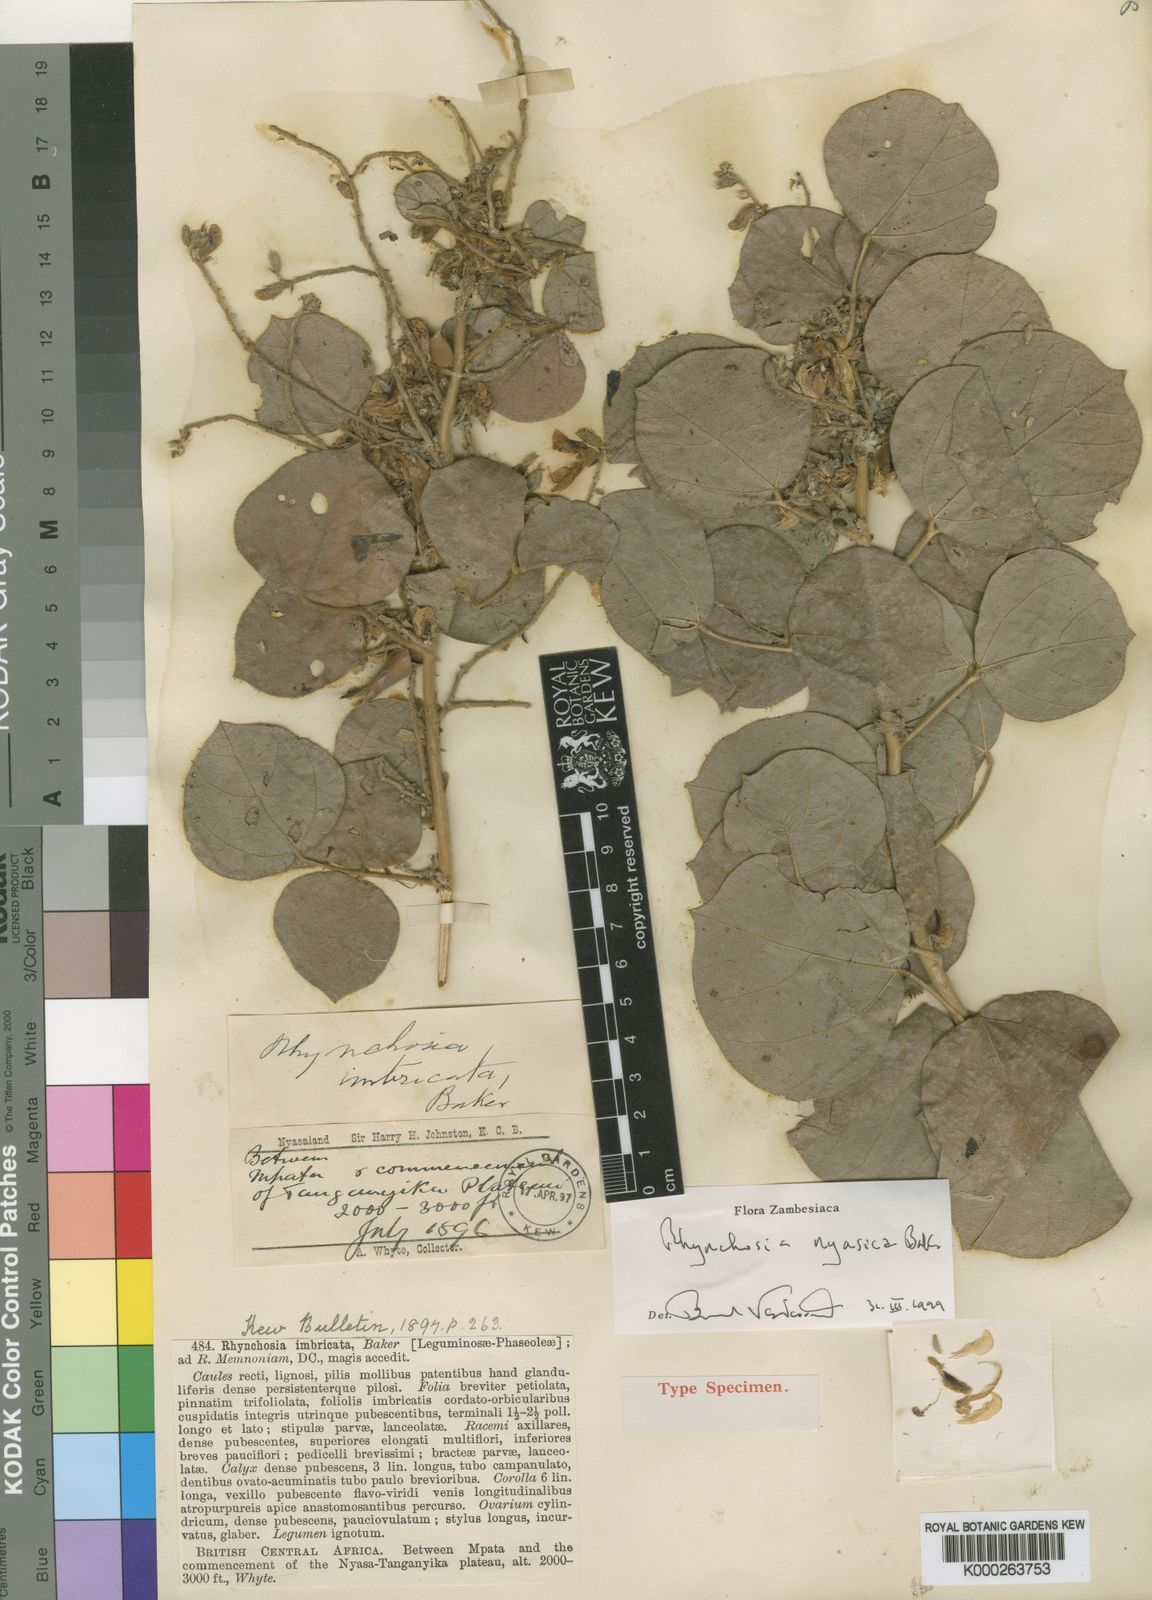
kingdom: Plantae
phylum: Tracheophyta
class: Magnoliopsida
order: Fabales
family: Fabaceae
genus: Rhynchosia
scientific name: Rhynchosia nyasica
